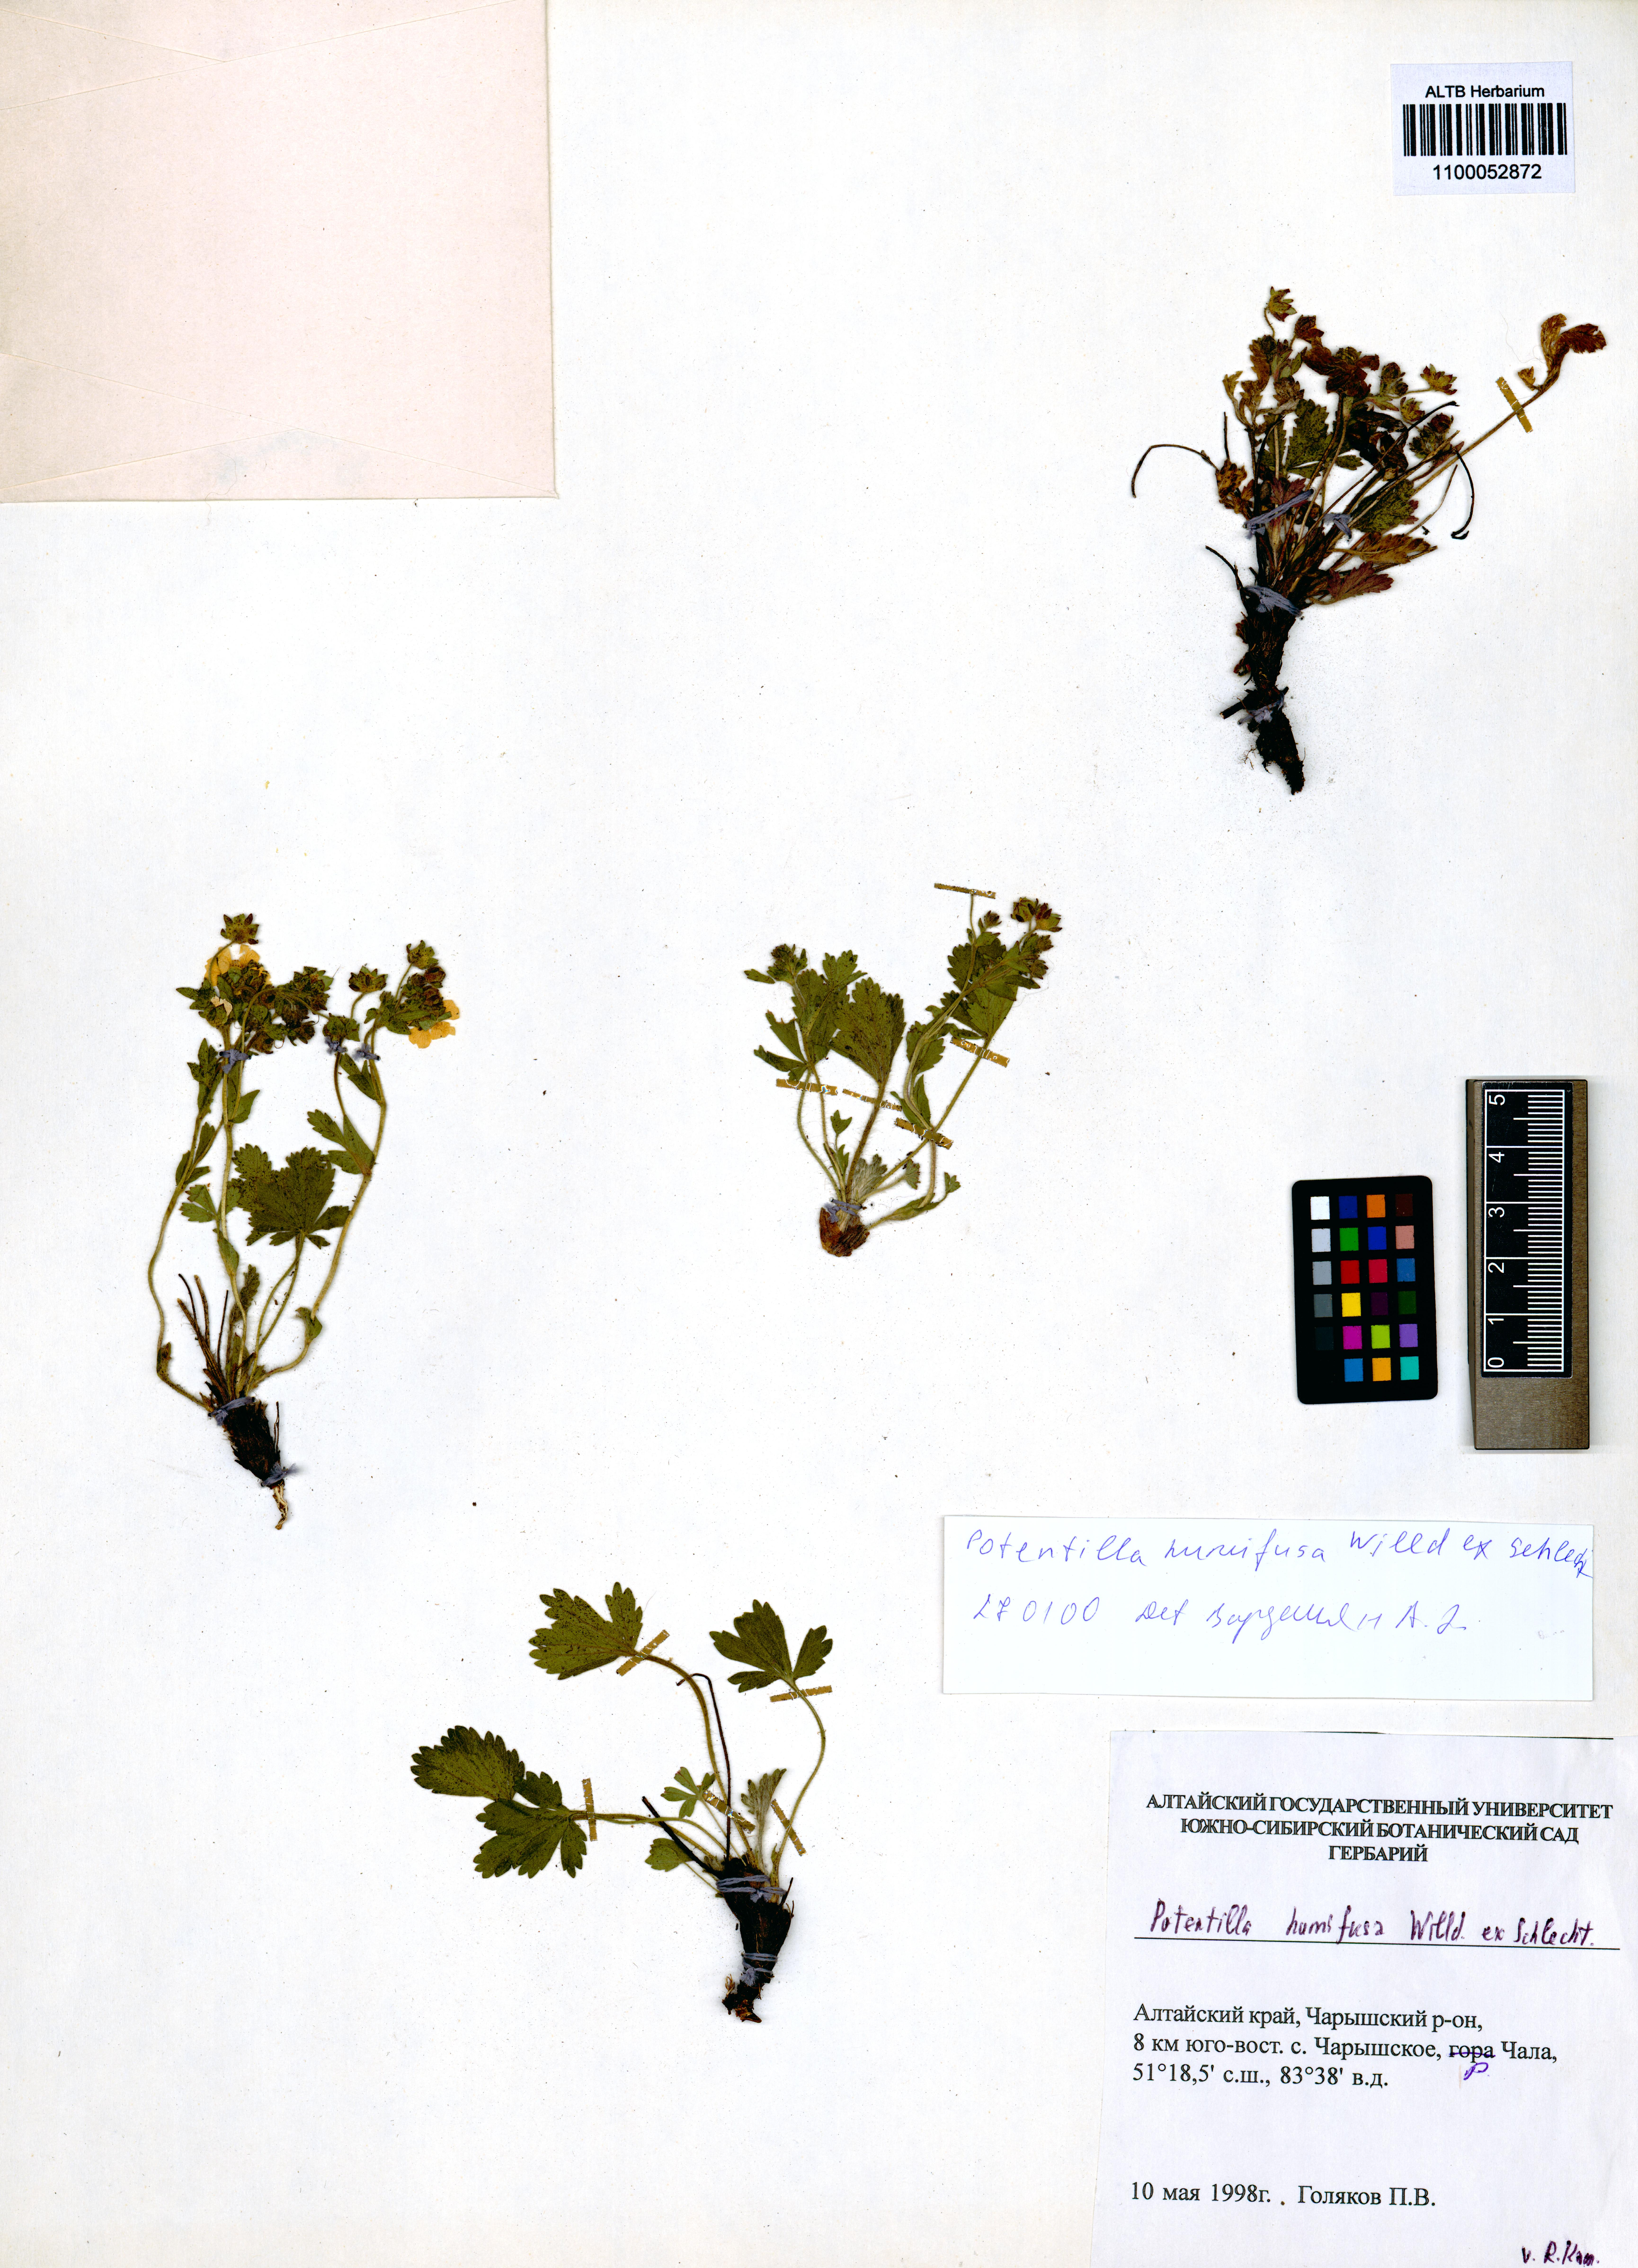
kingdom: Plantae
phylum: Tracheophyta
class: Magnoliopsida
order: Rosales
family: Rosaceae
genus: Potentilla
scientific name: Potentilla humifusa
